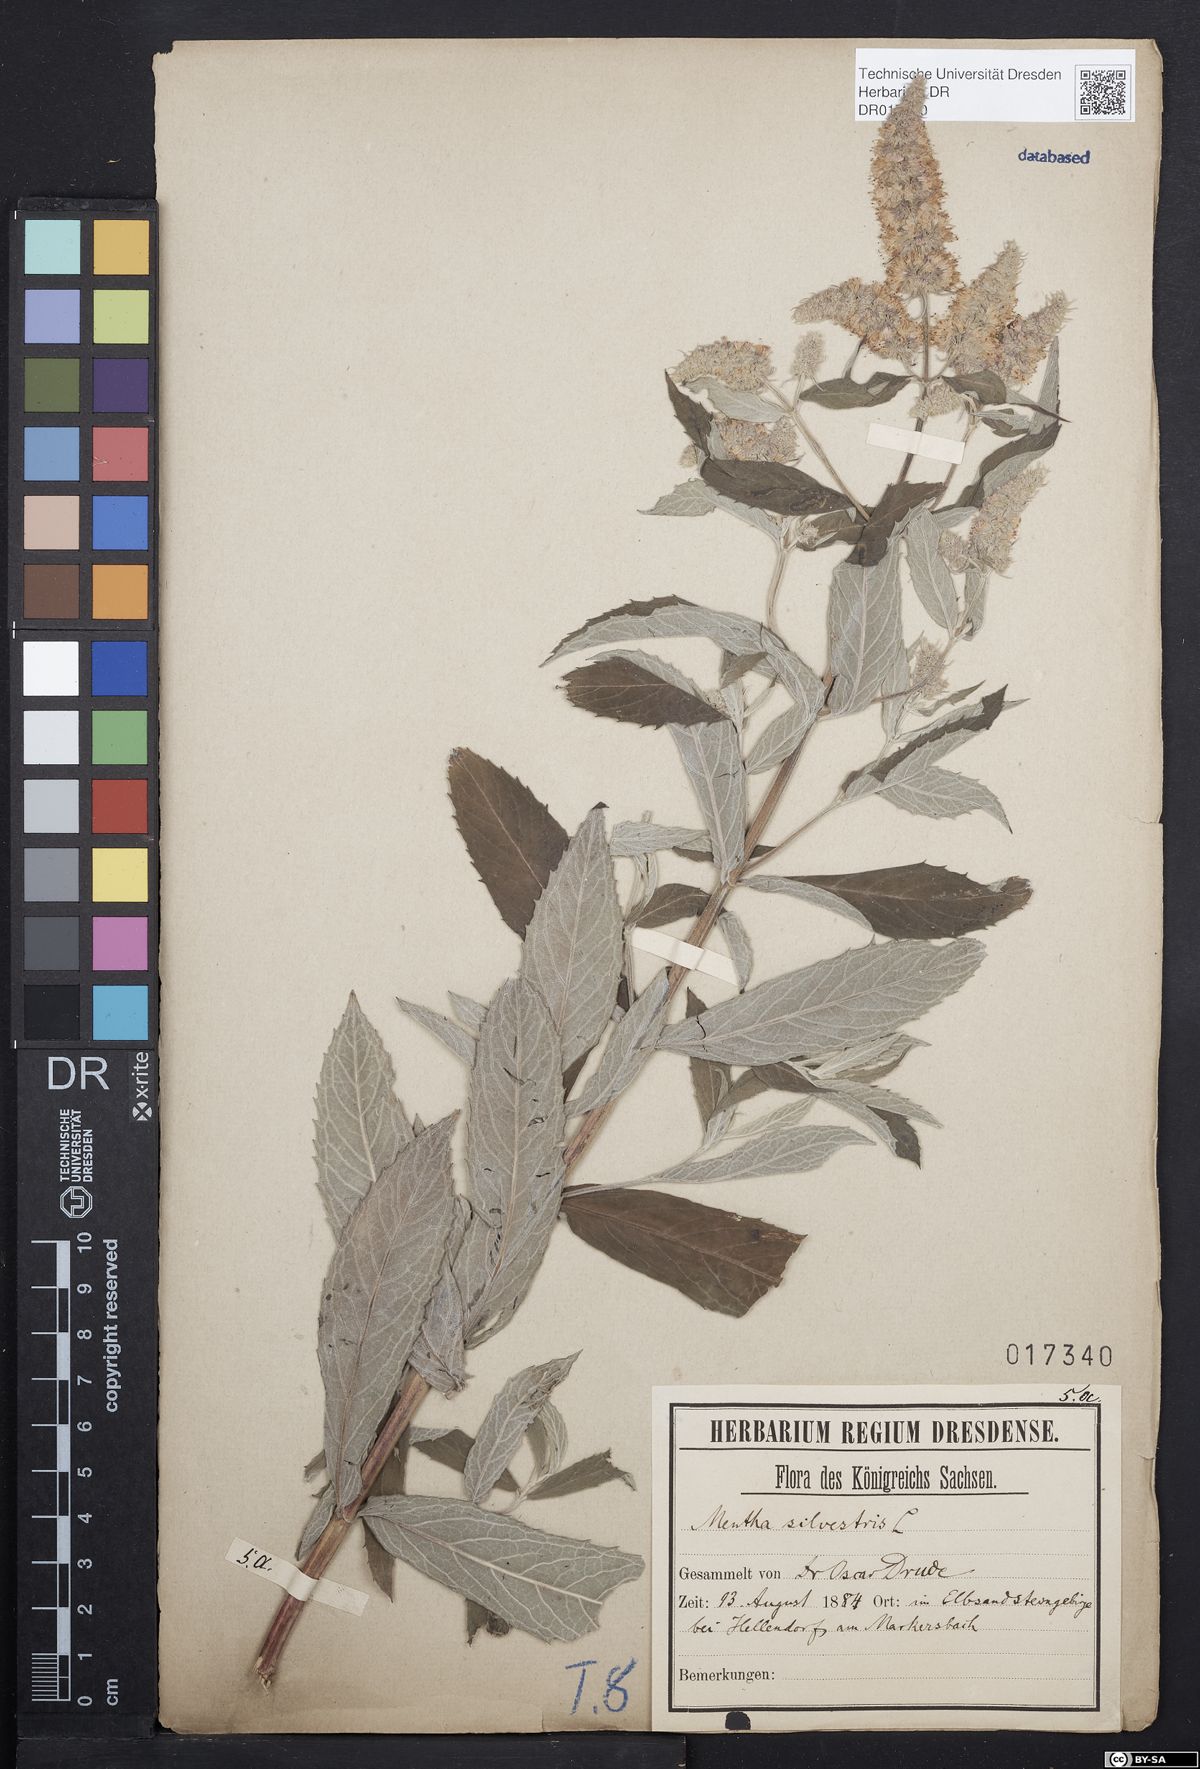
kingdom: Plantae
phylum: Tracheophyta
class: Magnoliopsida
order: Lamiales
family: Lamiaceae
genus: Mentha
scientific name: Mentha longifolia
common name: Horse mint
